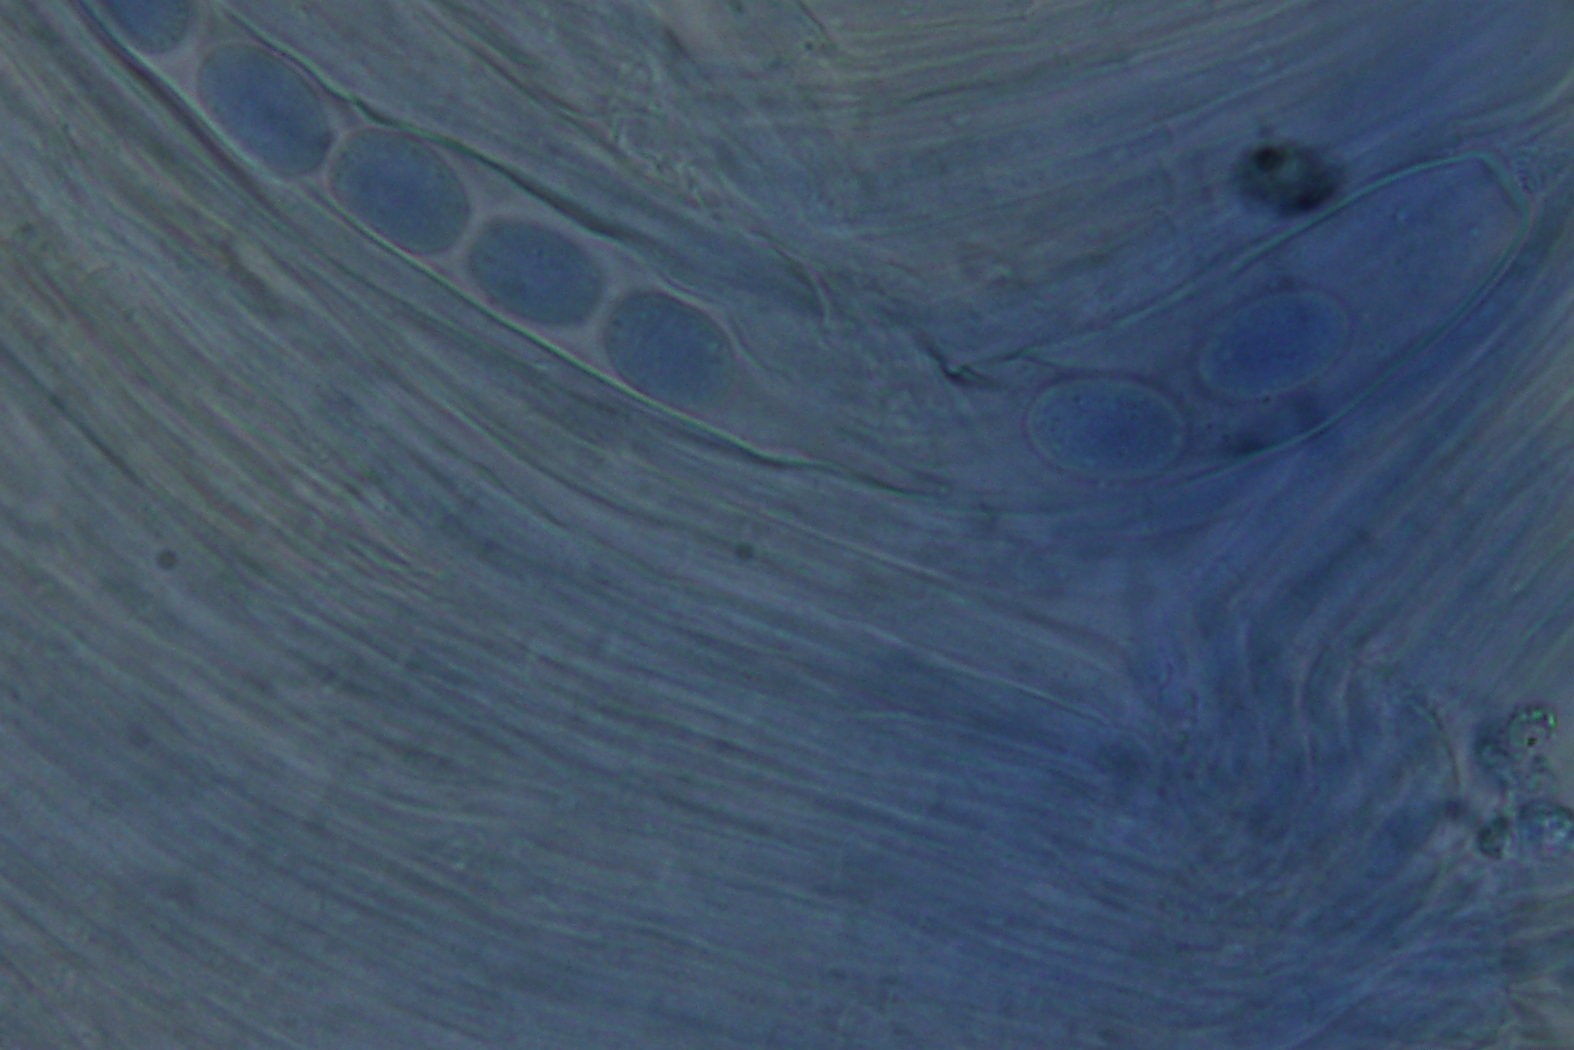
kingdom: Fungi
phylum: Ascomycota
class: Pezizomycetes
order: Pezizales
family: Pezizaceae
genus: Peziza
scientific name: Peziza
